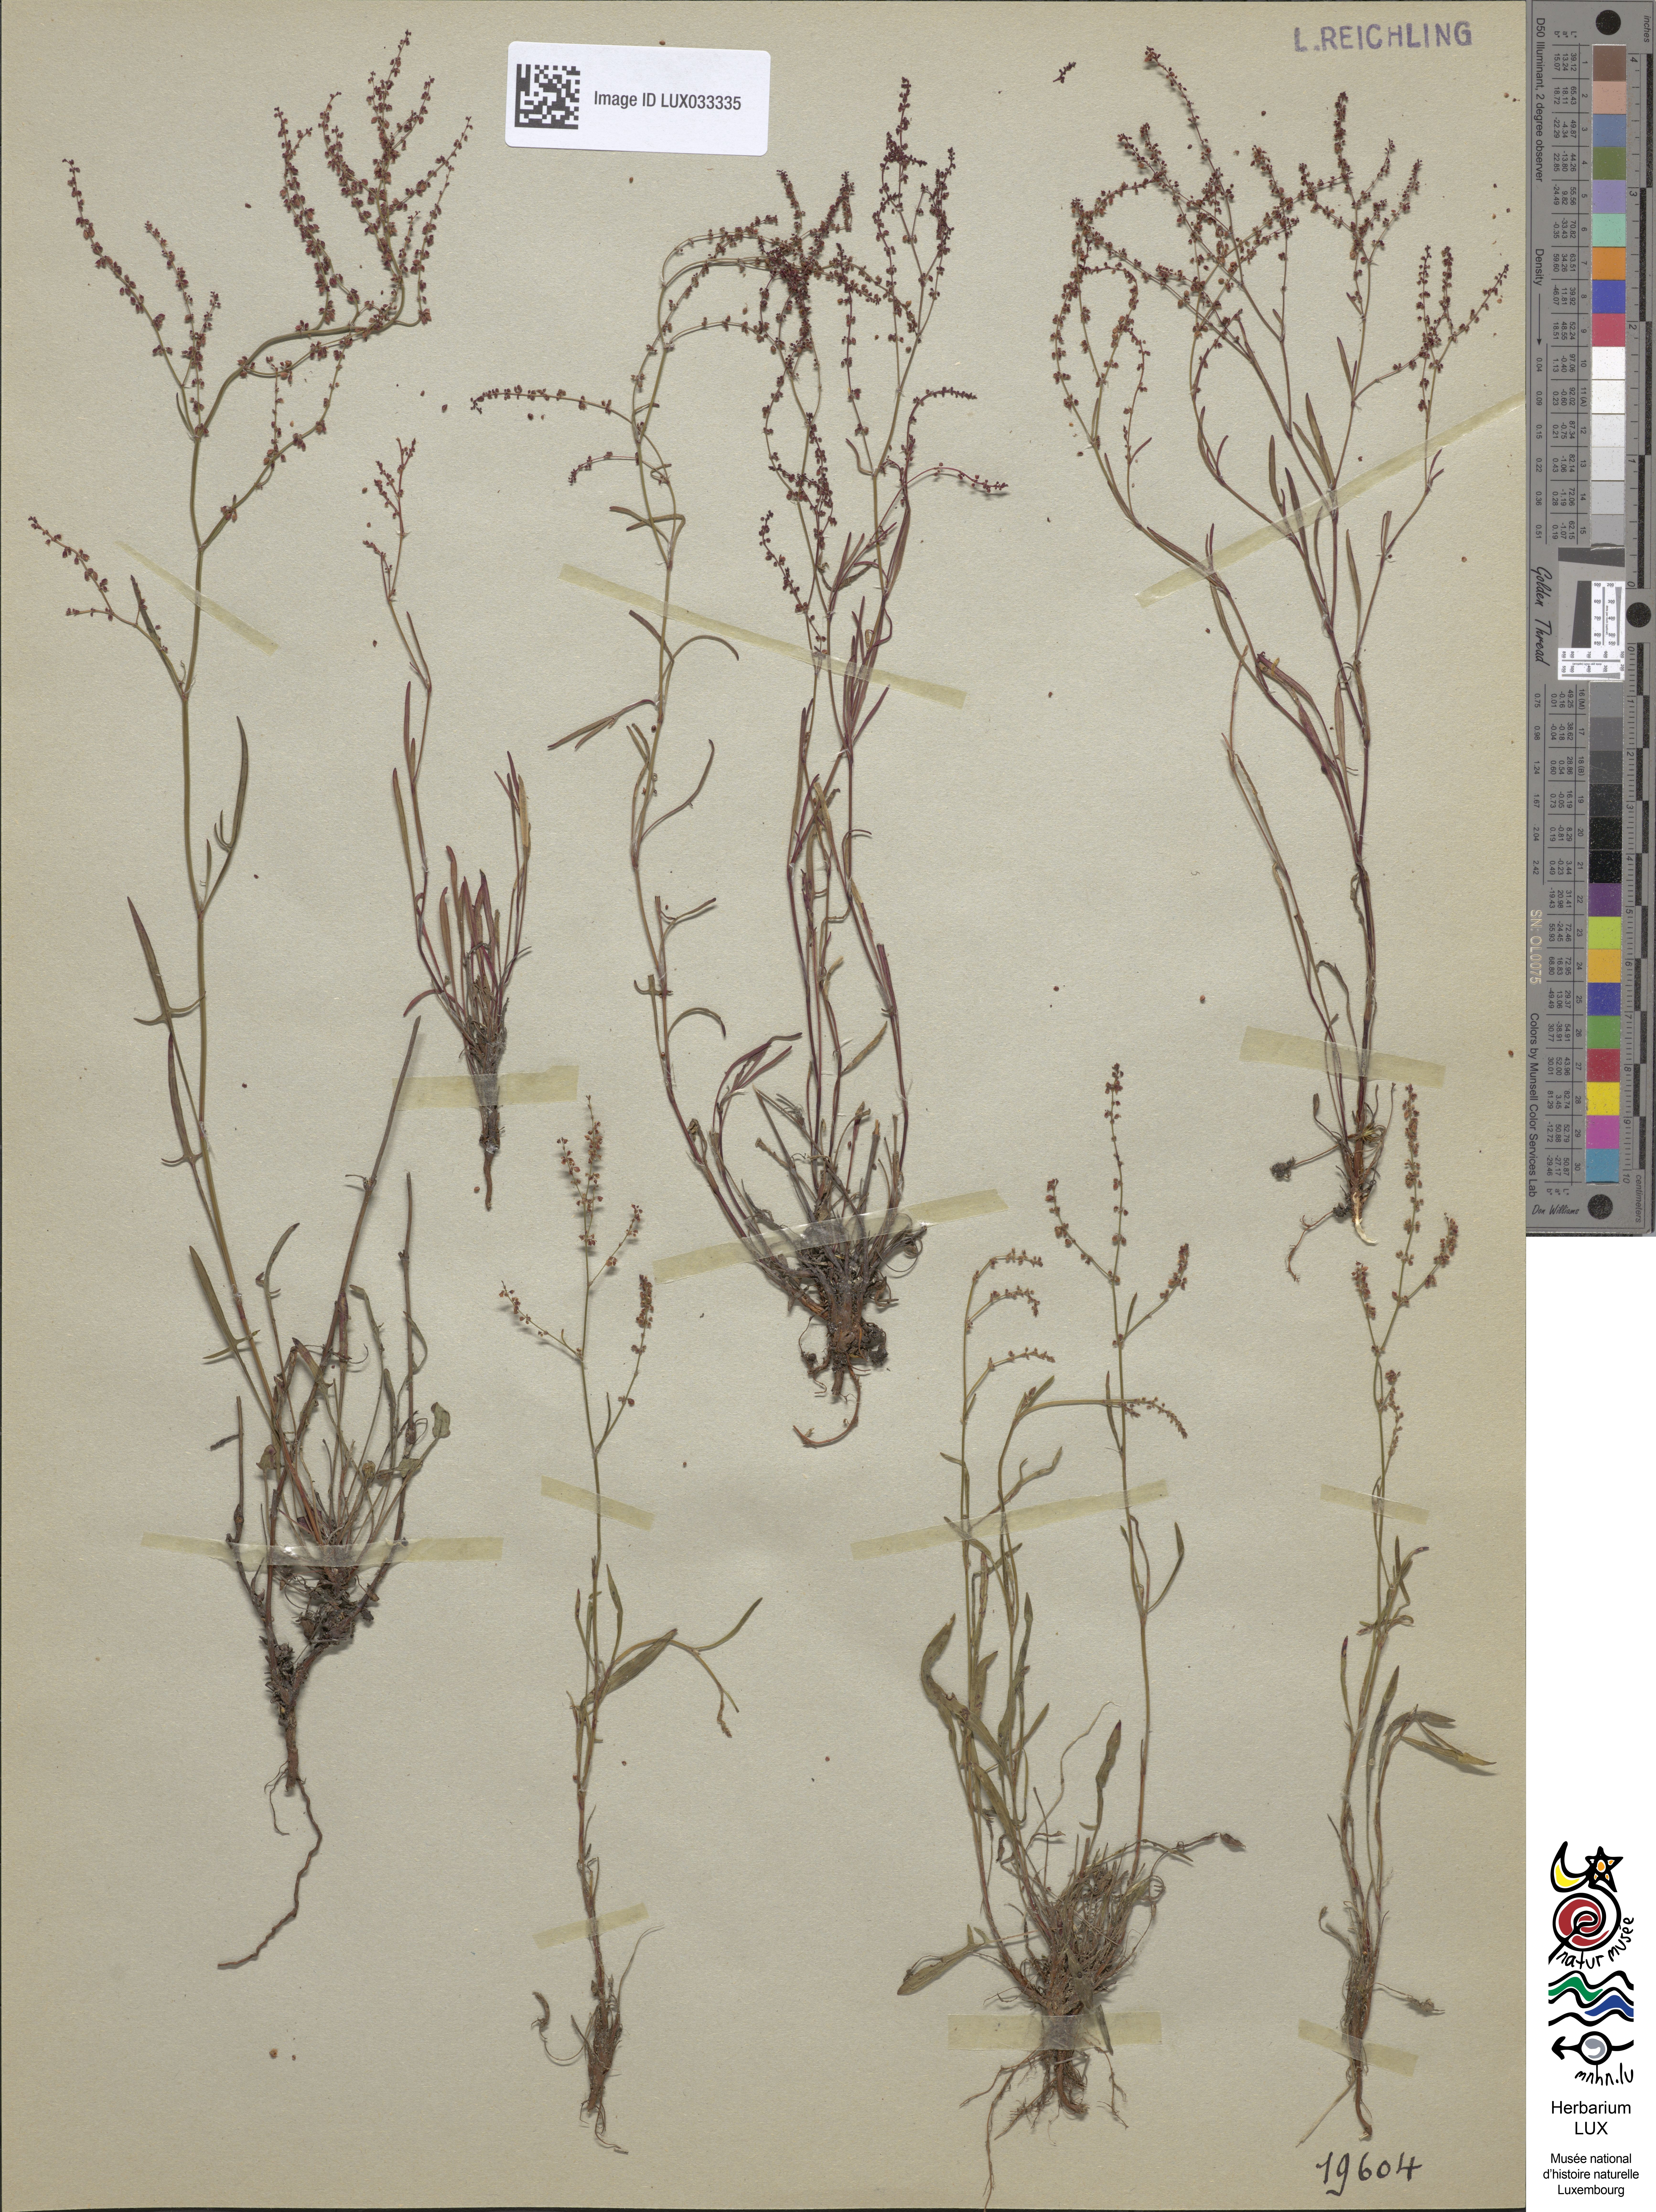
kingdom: Plantae
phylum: Tracheophyta
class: Magnoliopsida
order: Caryophyllales
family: Polygonaceae
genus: Rumex
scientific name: Rumex acetosella
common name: Common sheep sorrel
